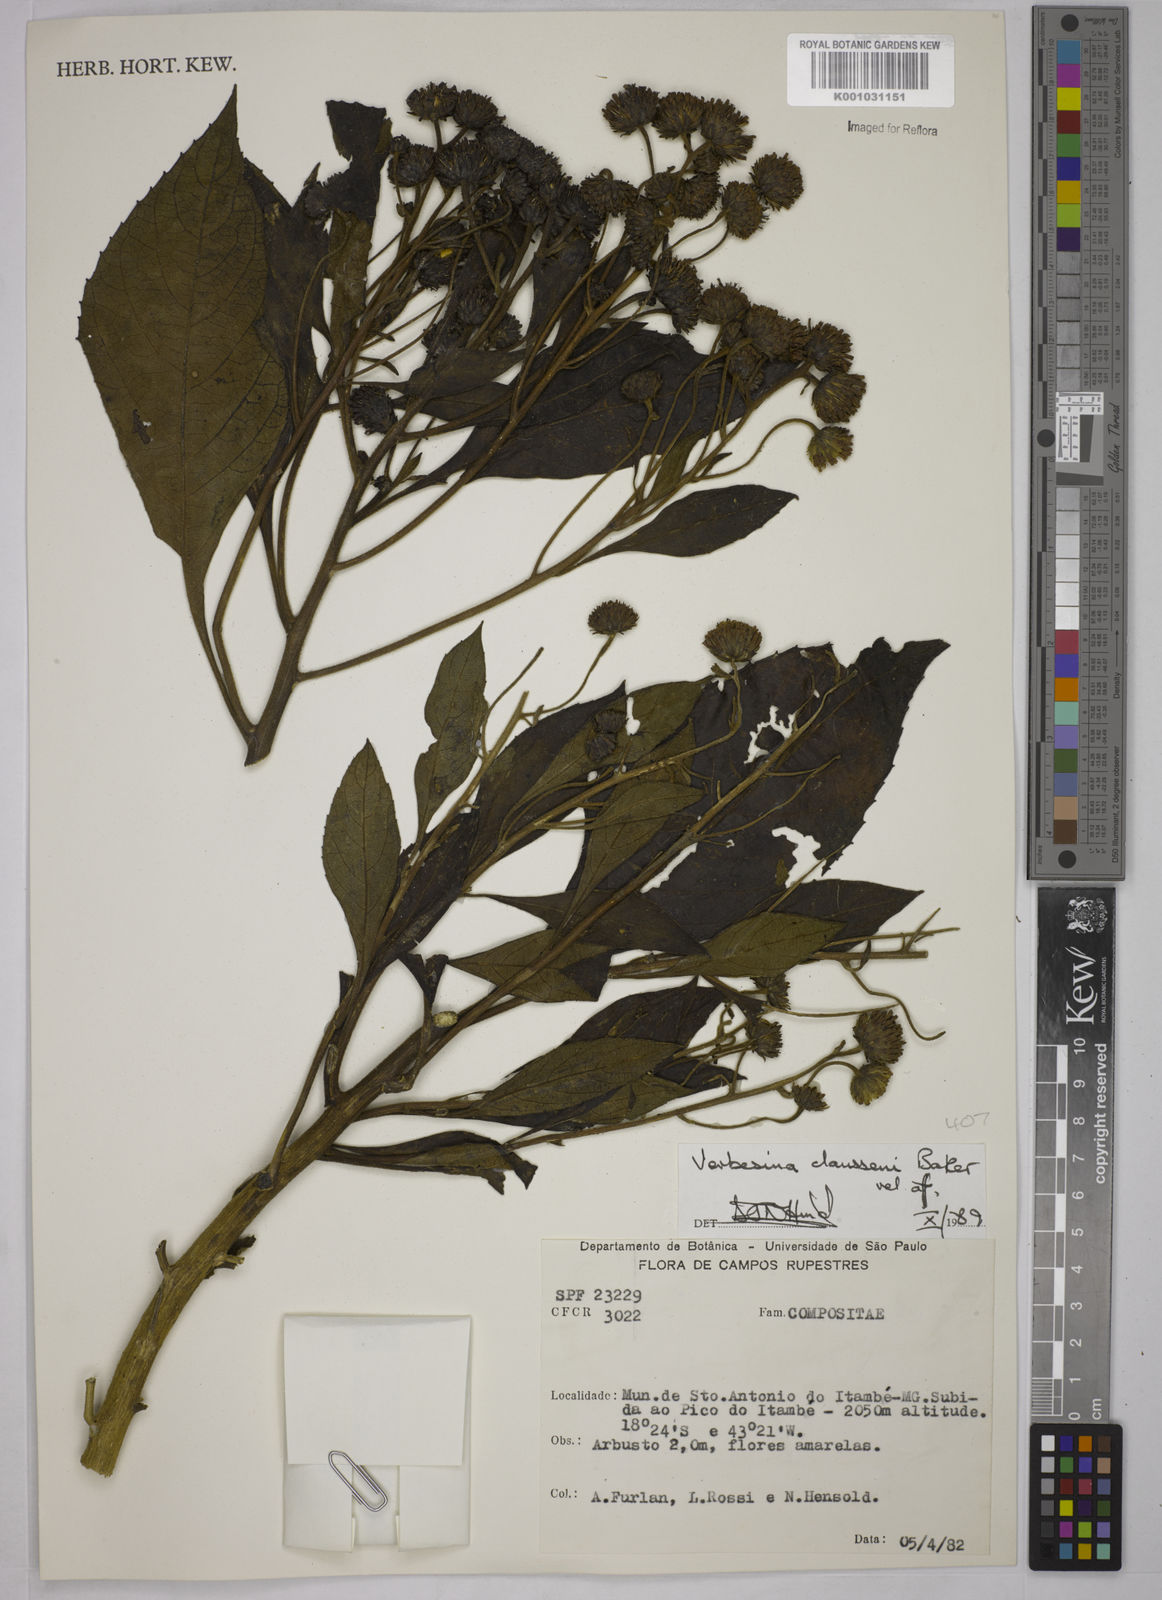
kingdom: Plantae
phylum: Tracheophyta
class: Magnoliopsida
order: Asterales
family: Asteraceae
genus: Verbesina
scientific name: Verbesina claussenii
